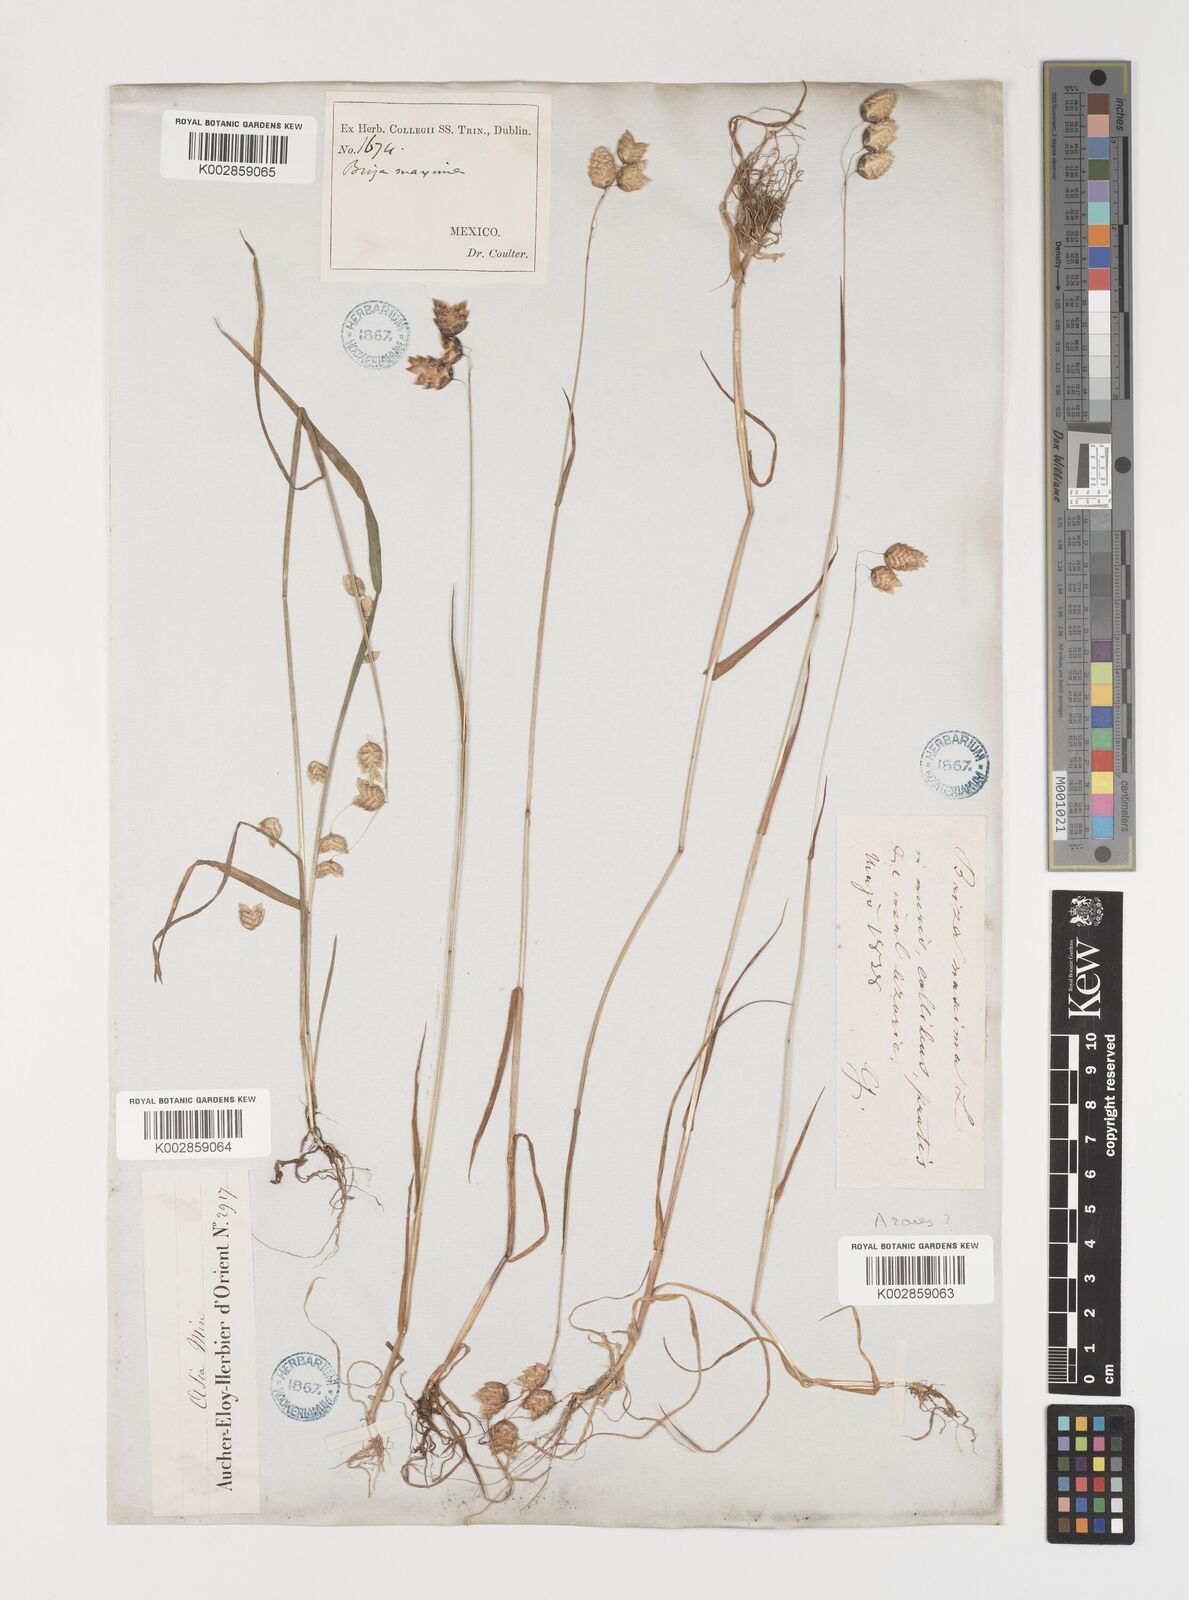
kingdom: Plantae
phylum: Tracheophyta
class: Liliopsida
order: Poales
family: Poaceae
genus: Briza
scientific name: Briza maxima
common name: Big quakinggrass
